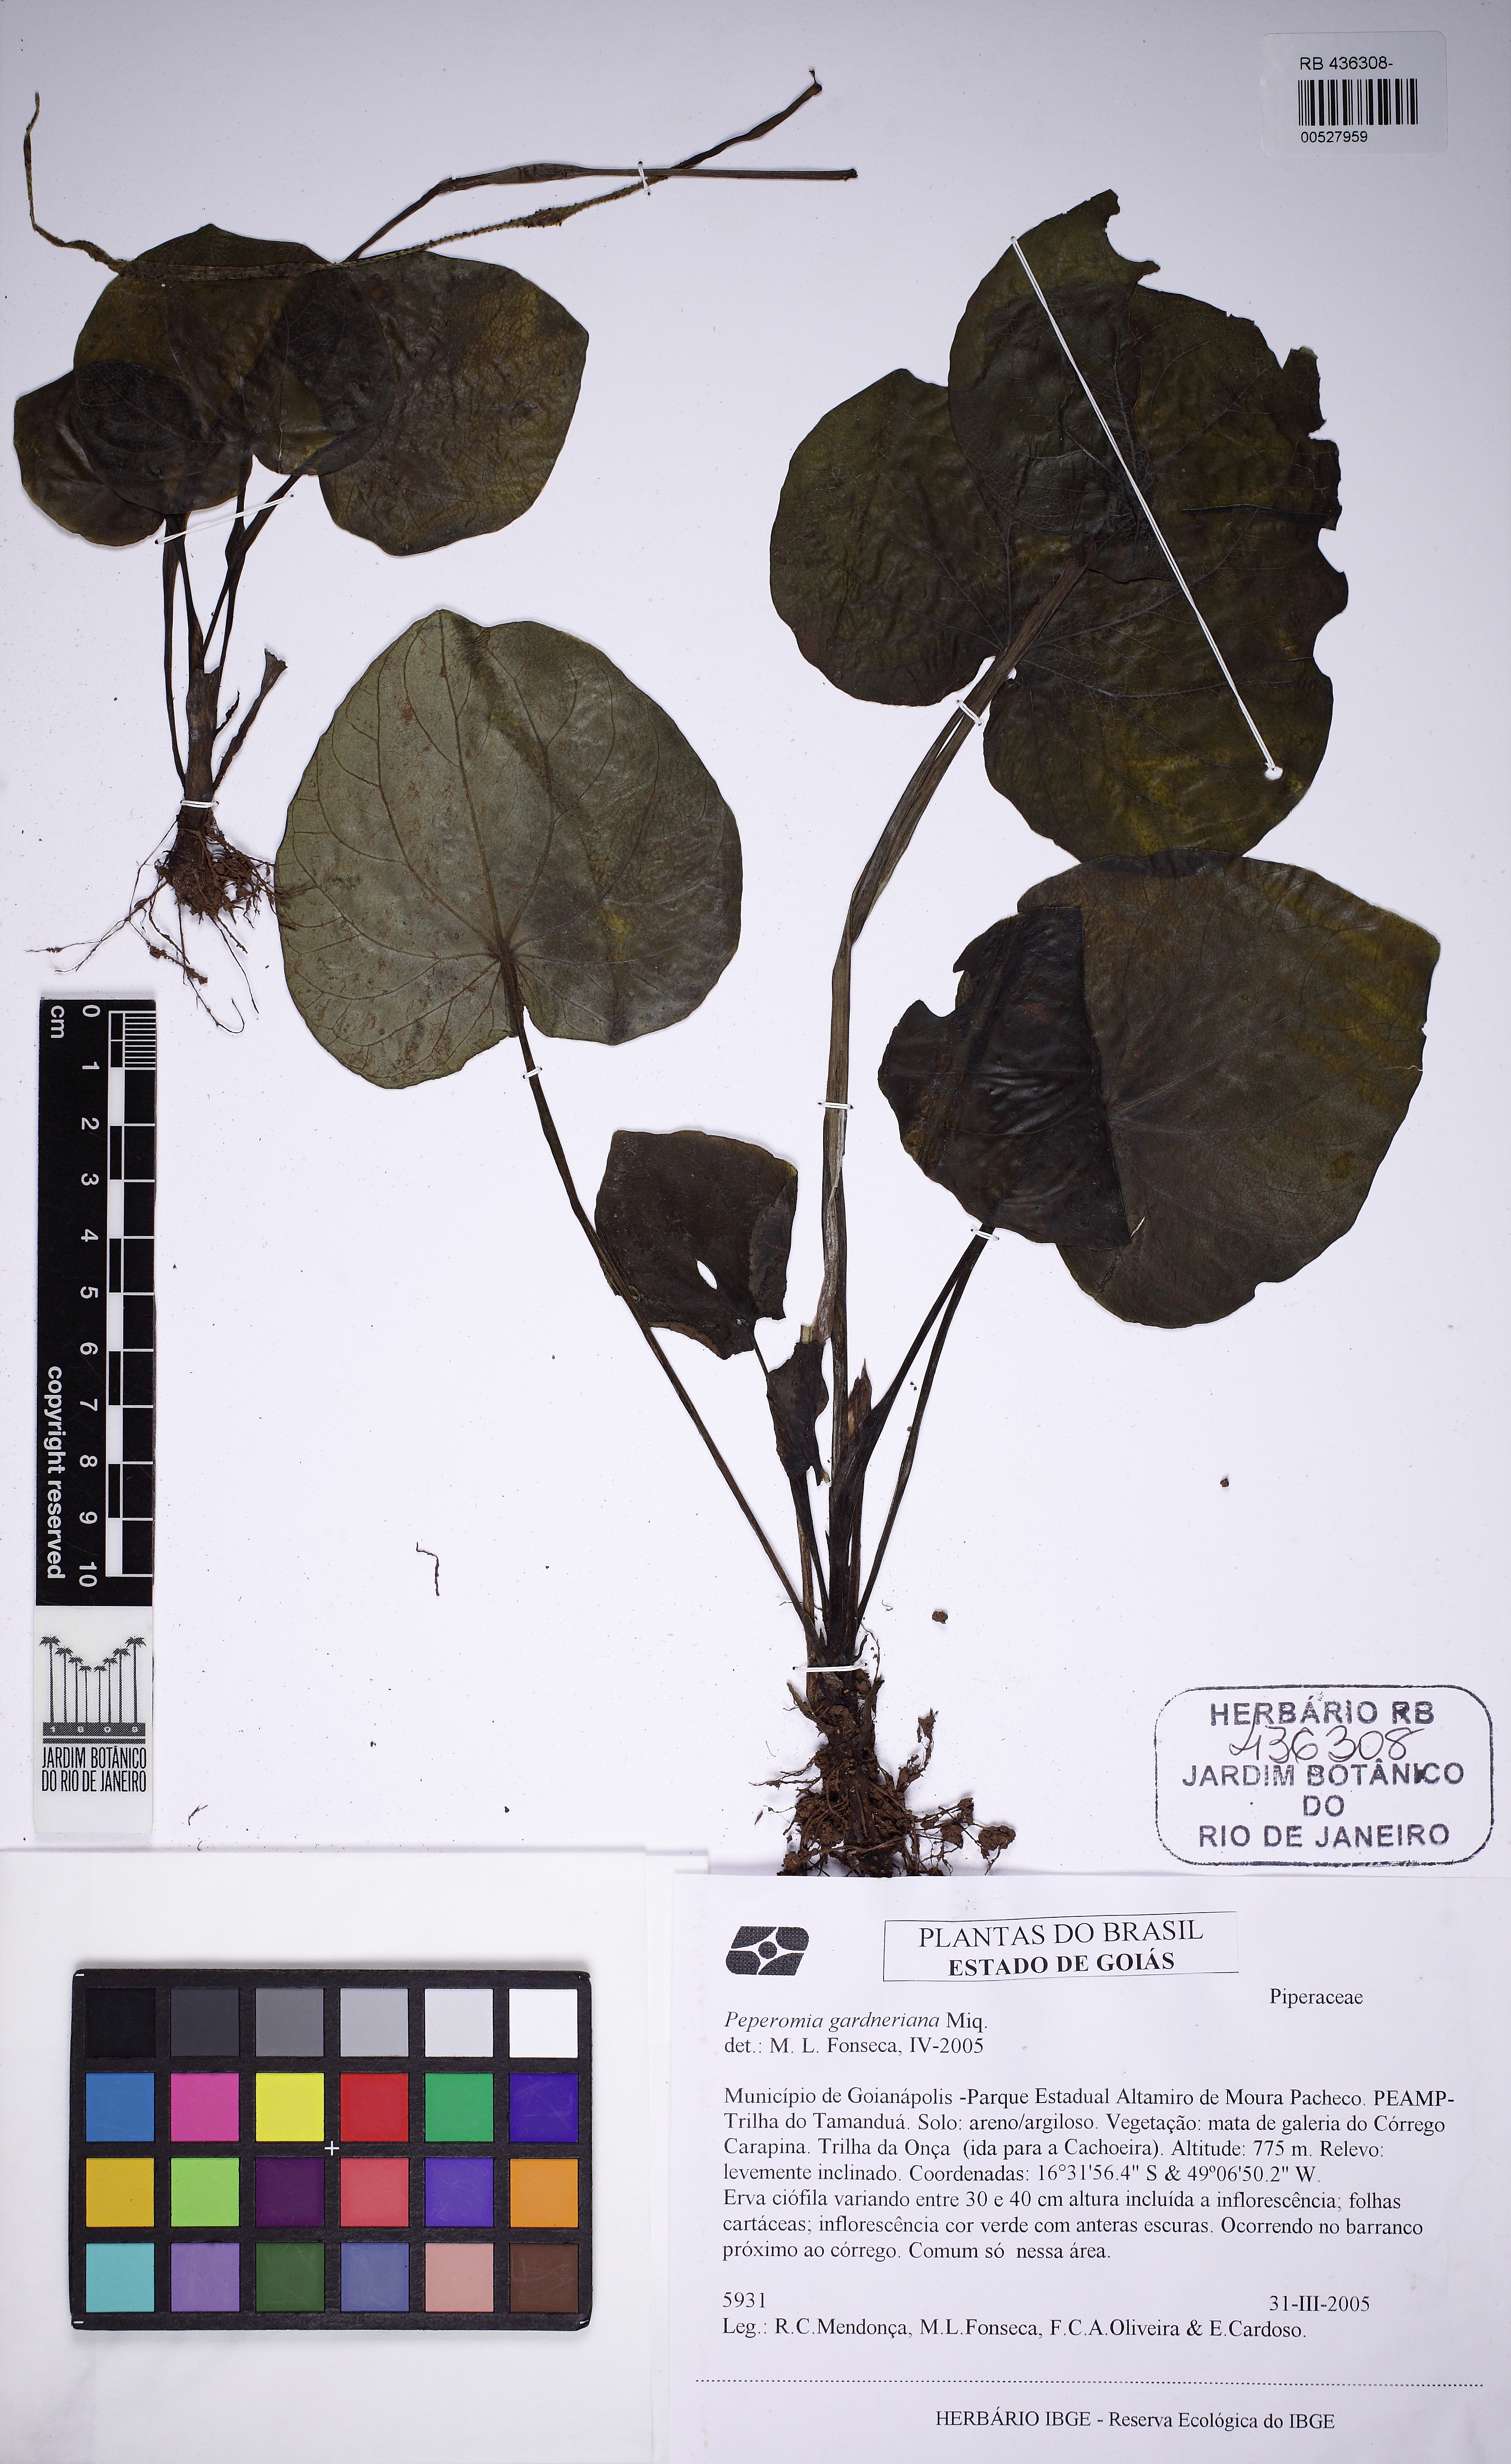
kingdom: Plantae
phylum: Tracheophyta
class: Magnoliopsida
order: Piperales
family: Piperaceae
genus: Peperomia
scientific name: Peperomia gardneriana
